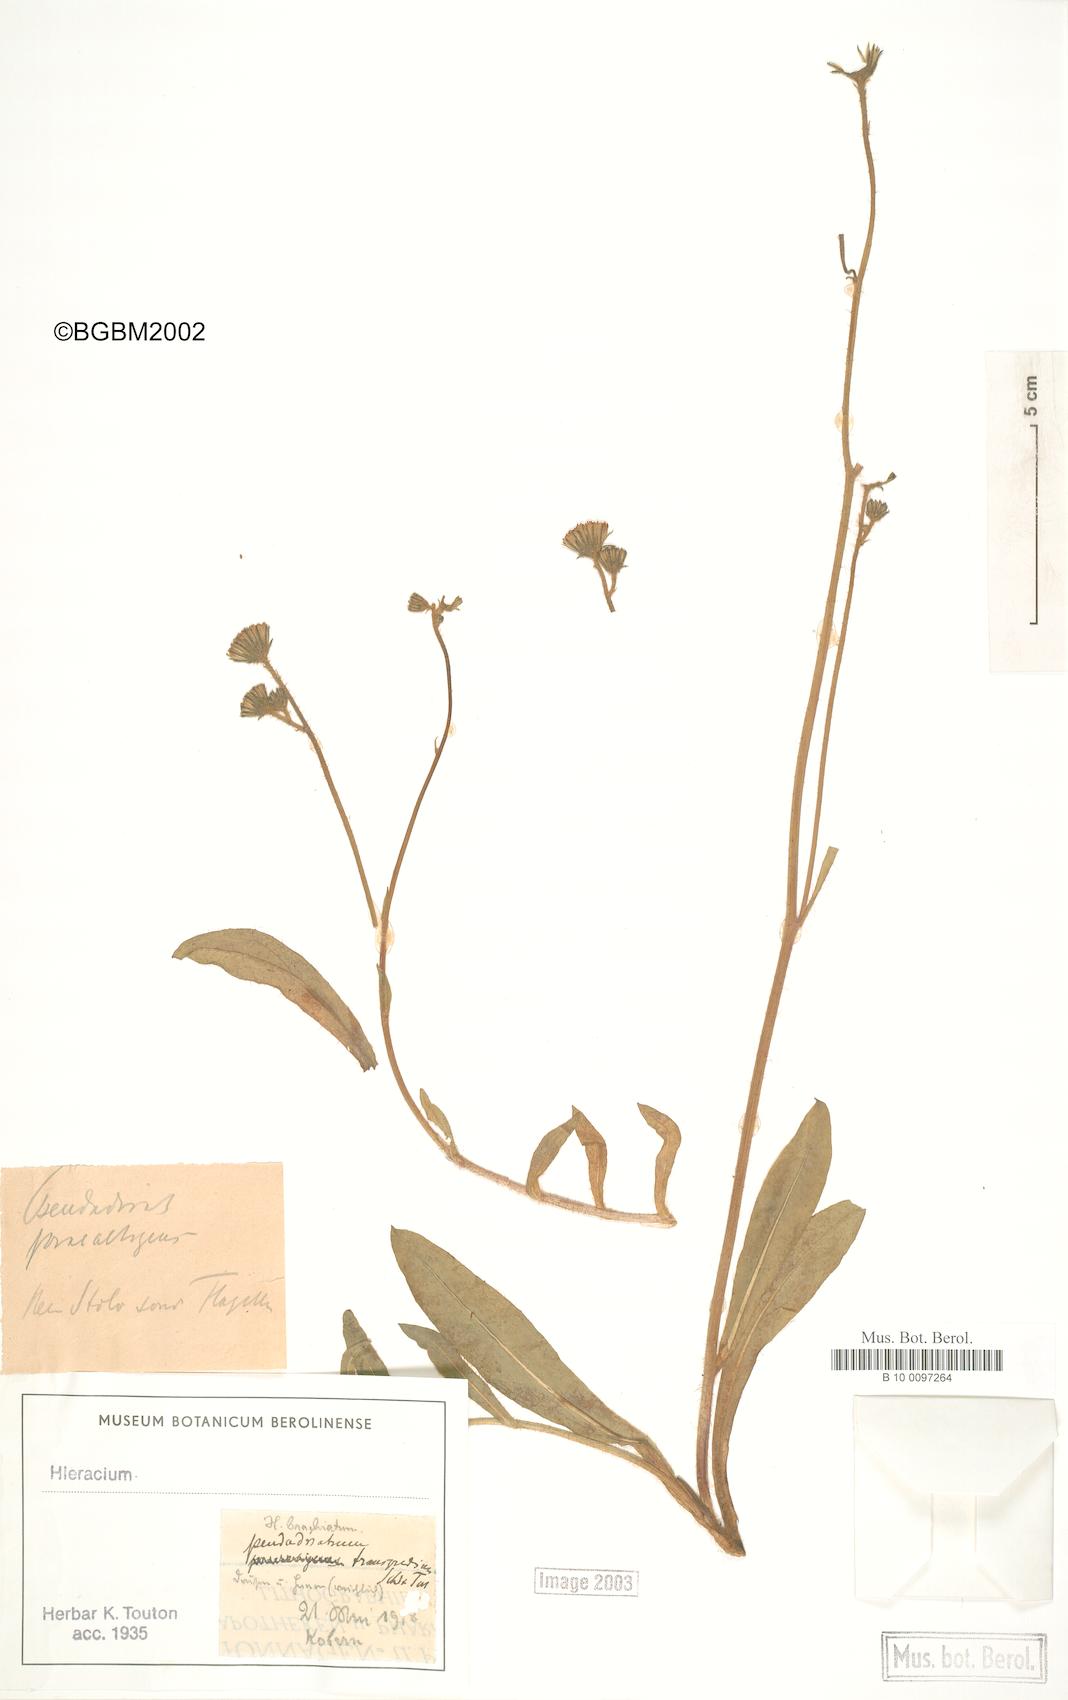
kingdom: Plantae
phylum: Tracheophyta
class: Magnoliopsida
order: Asterales
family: Asteraceae
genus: Pilosella
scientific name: Pilosella acutifolia
